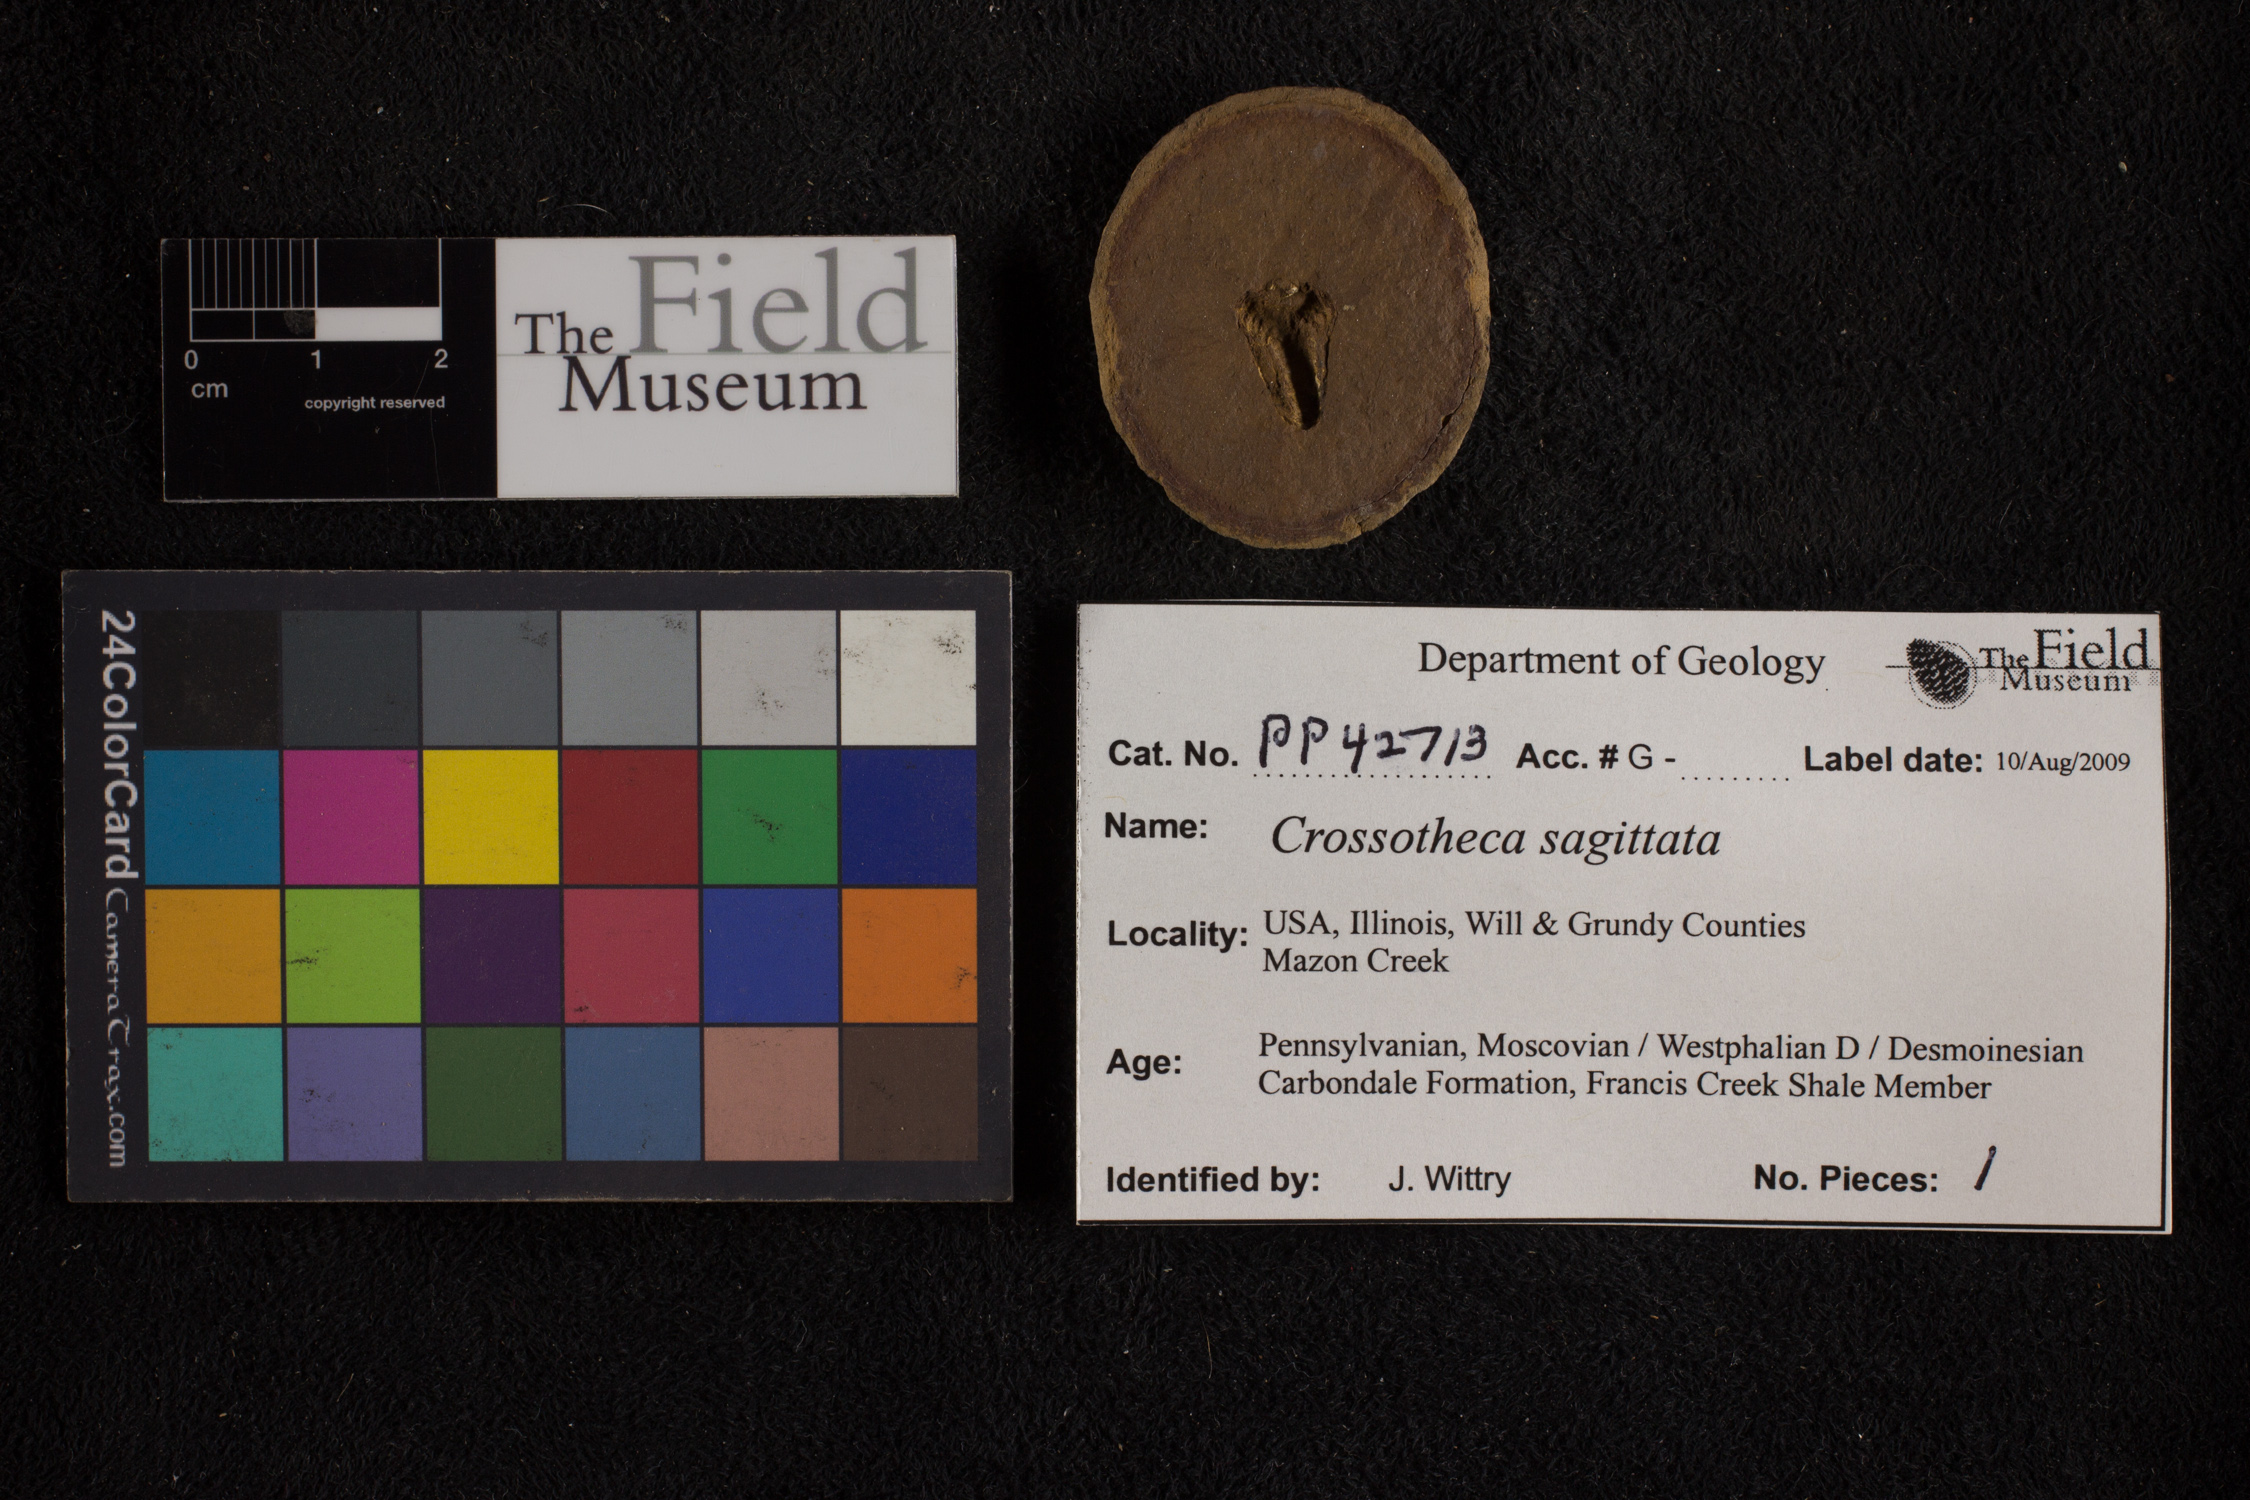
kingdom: Plantae
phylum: Tracheophyta
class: Polypodiopsida
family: Stauropteridaceae
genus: Crossotheca
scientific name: Crossotheca
